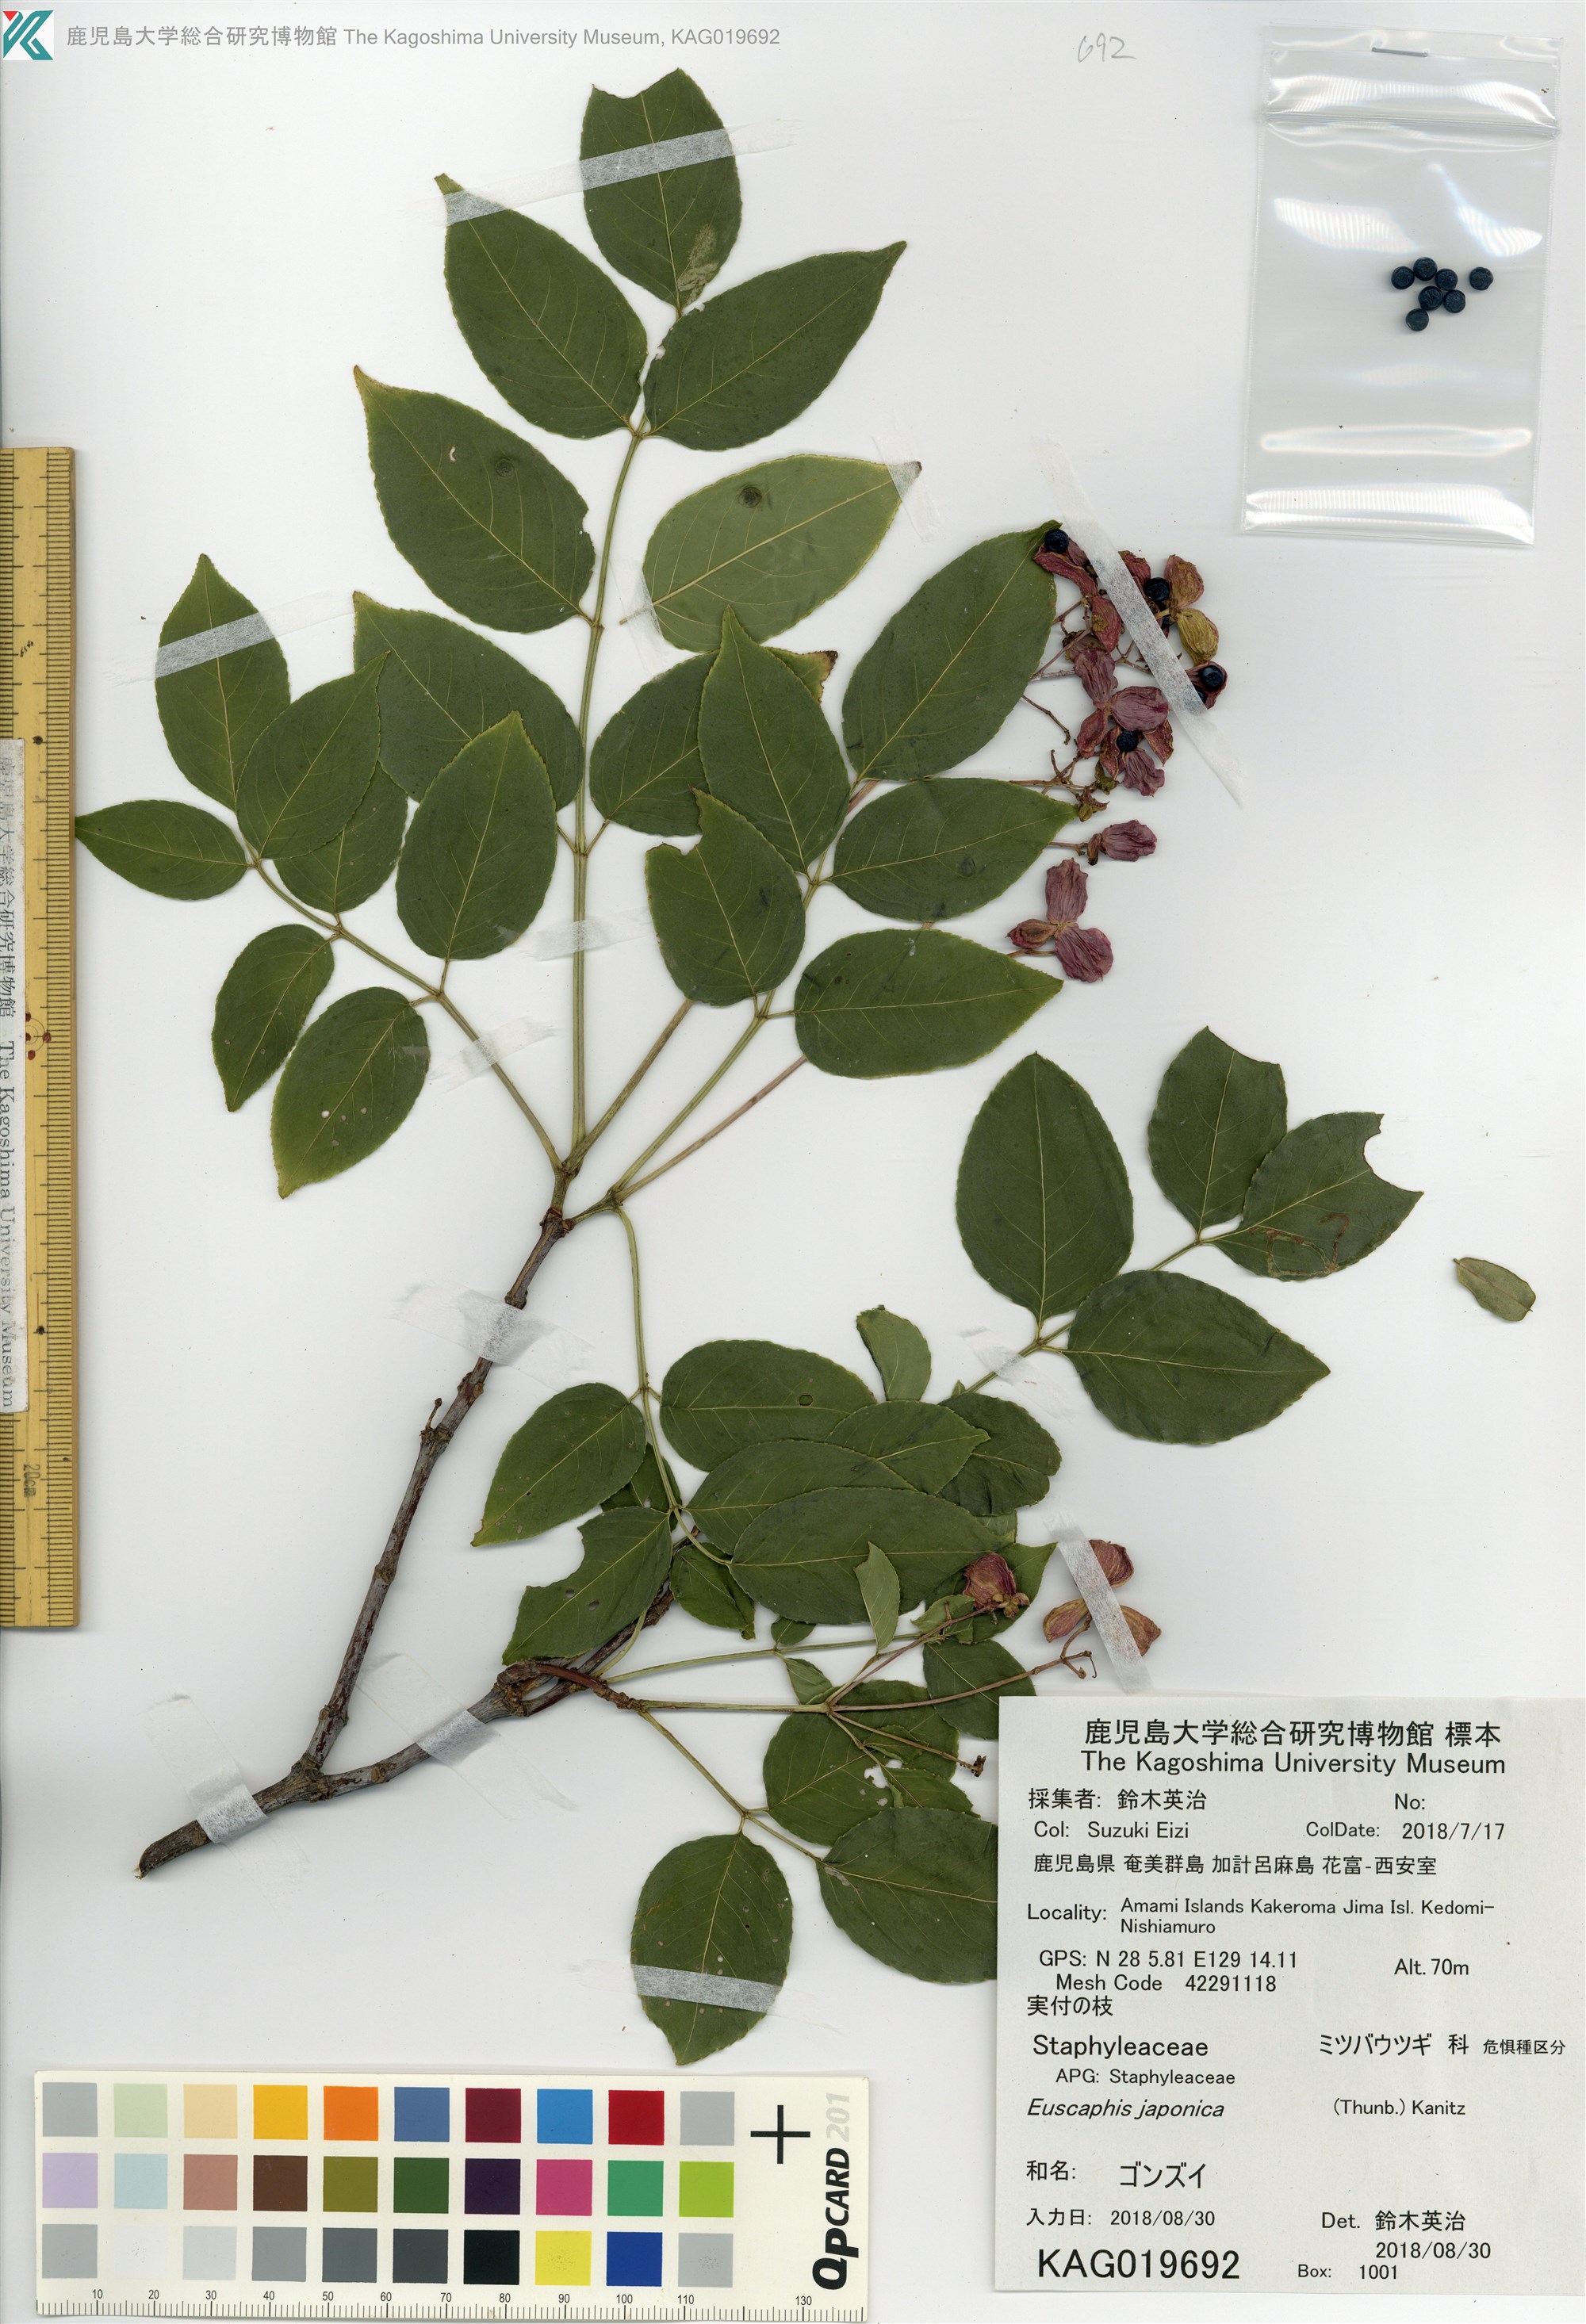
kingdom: Plantae
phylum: Tracheophyta
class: Magnoliopsida
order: Crossosomatales
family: Staphyleaceae
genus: Staphylea
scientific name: Staphylea japonica
